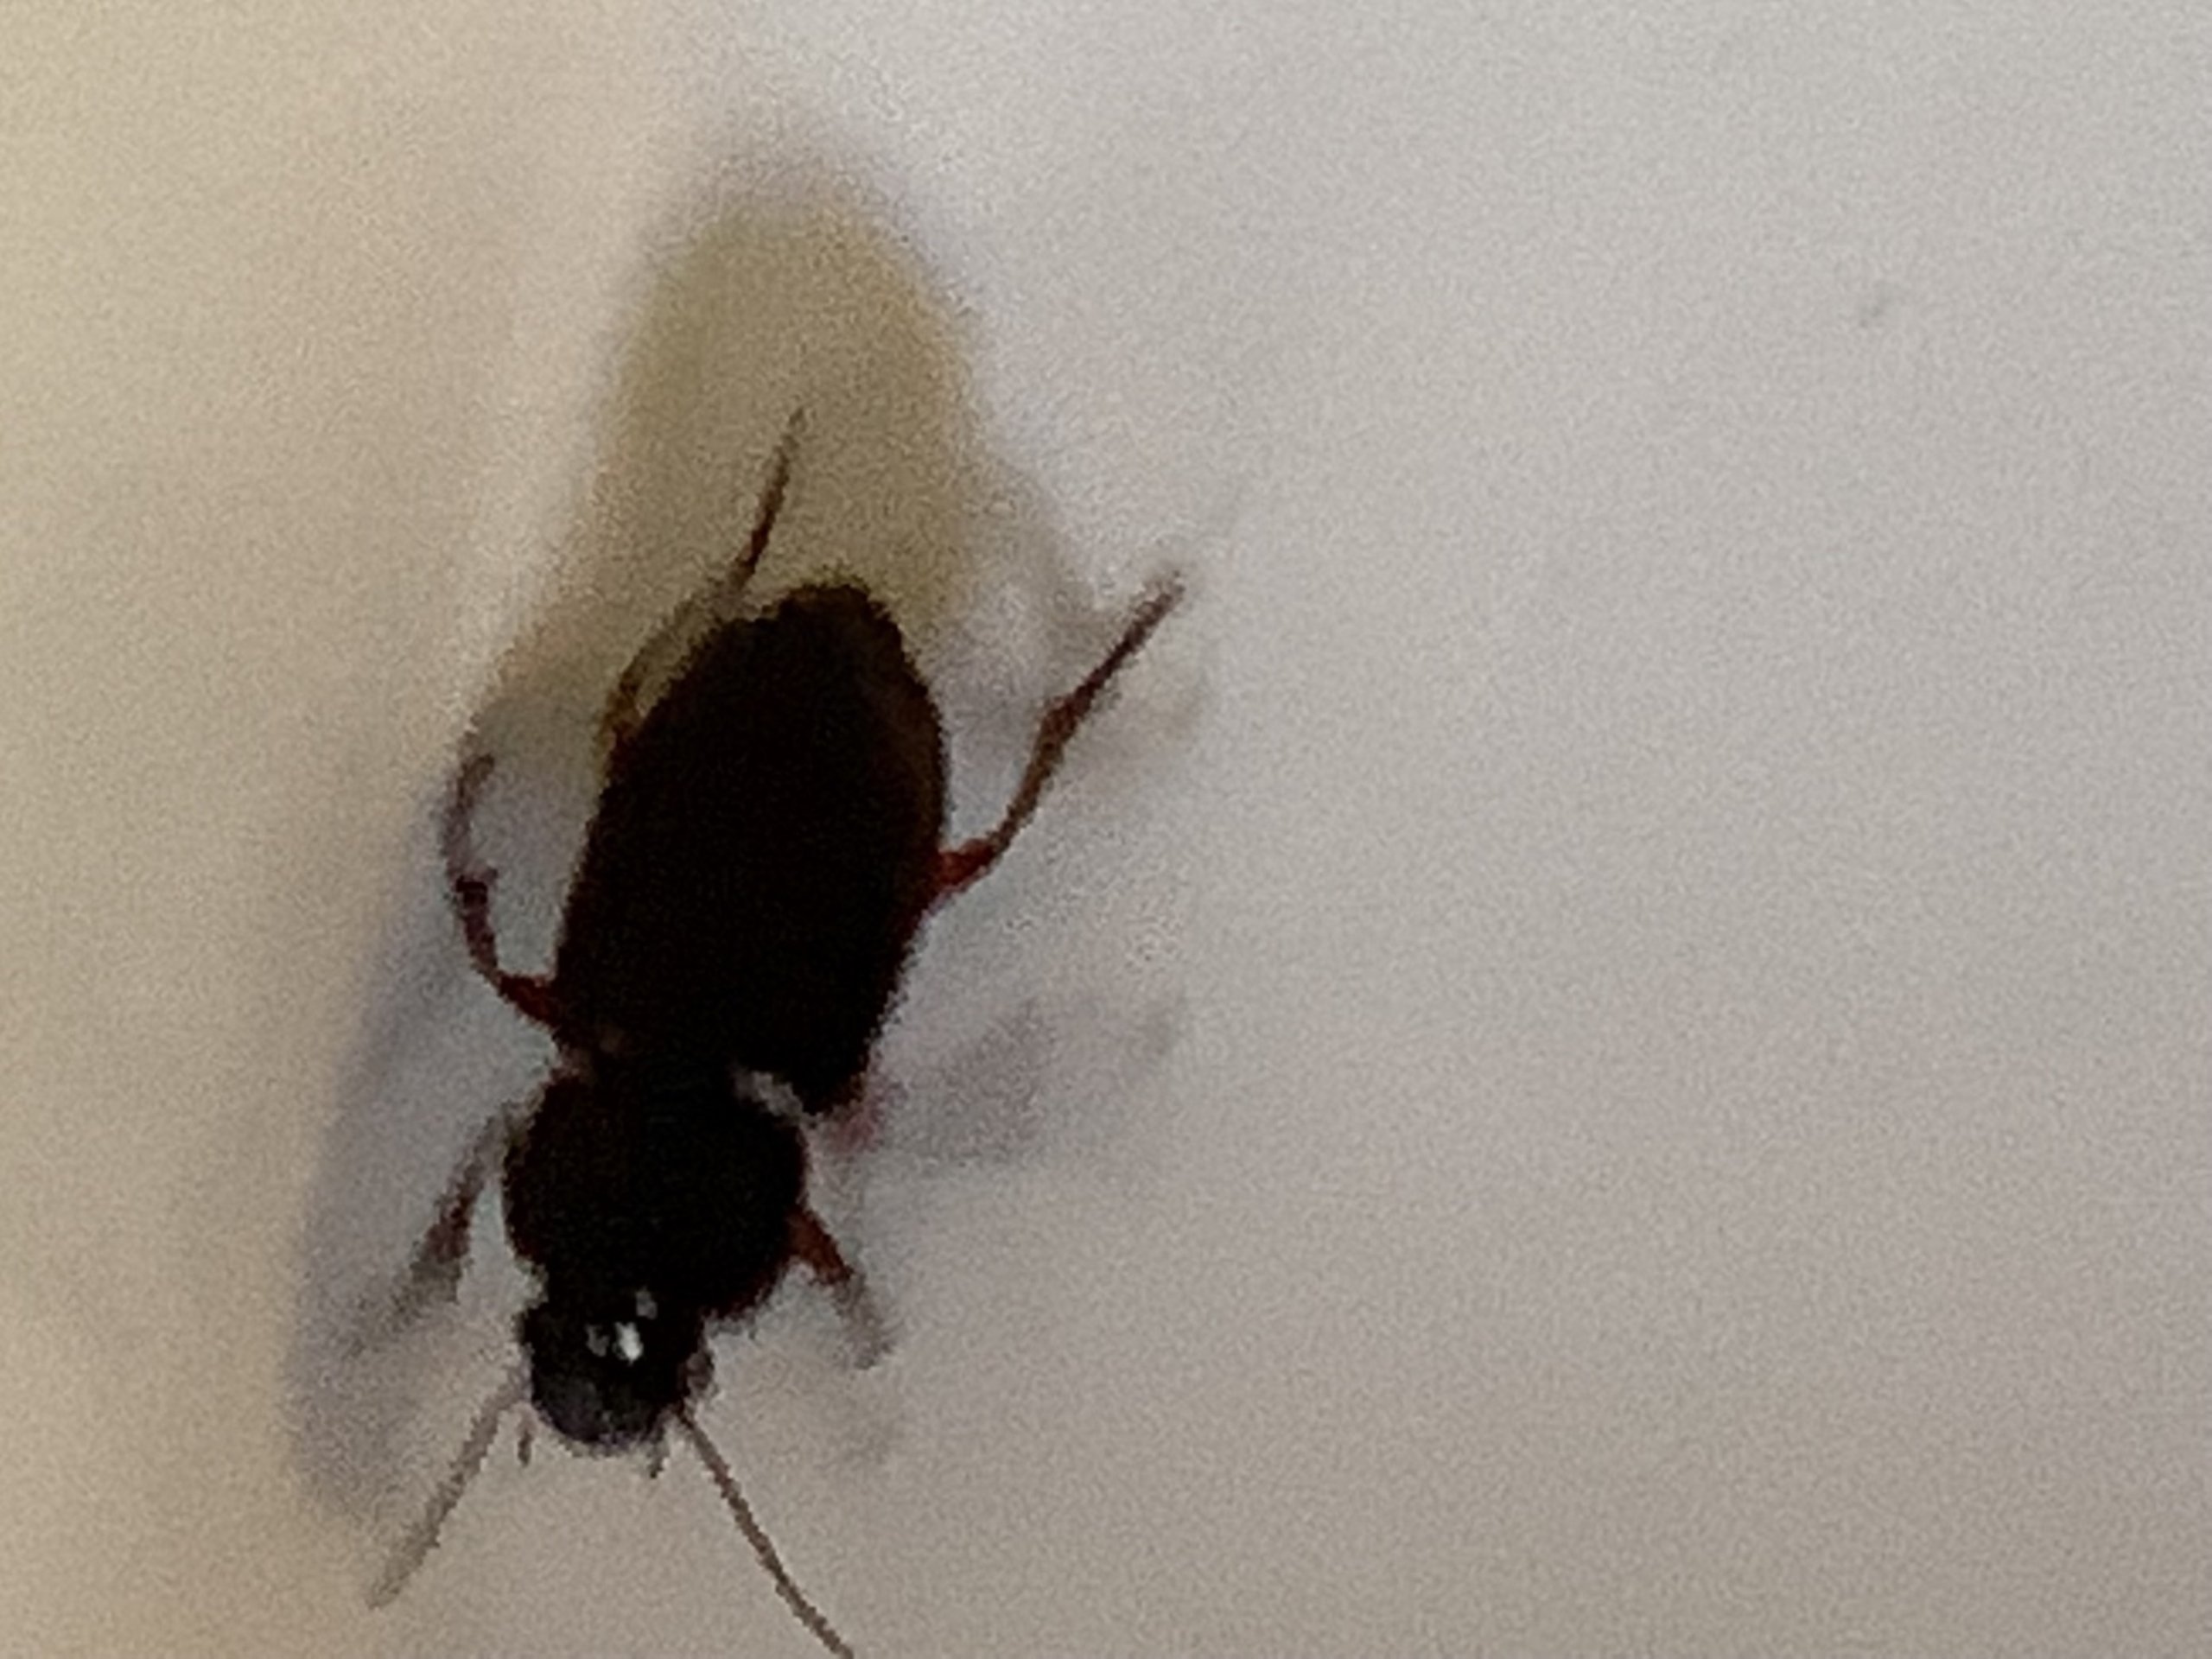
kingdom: Animalia
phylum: Arthropoda
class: Insecta
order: Coleoptera
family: Carabidae
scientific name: Carabidae
